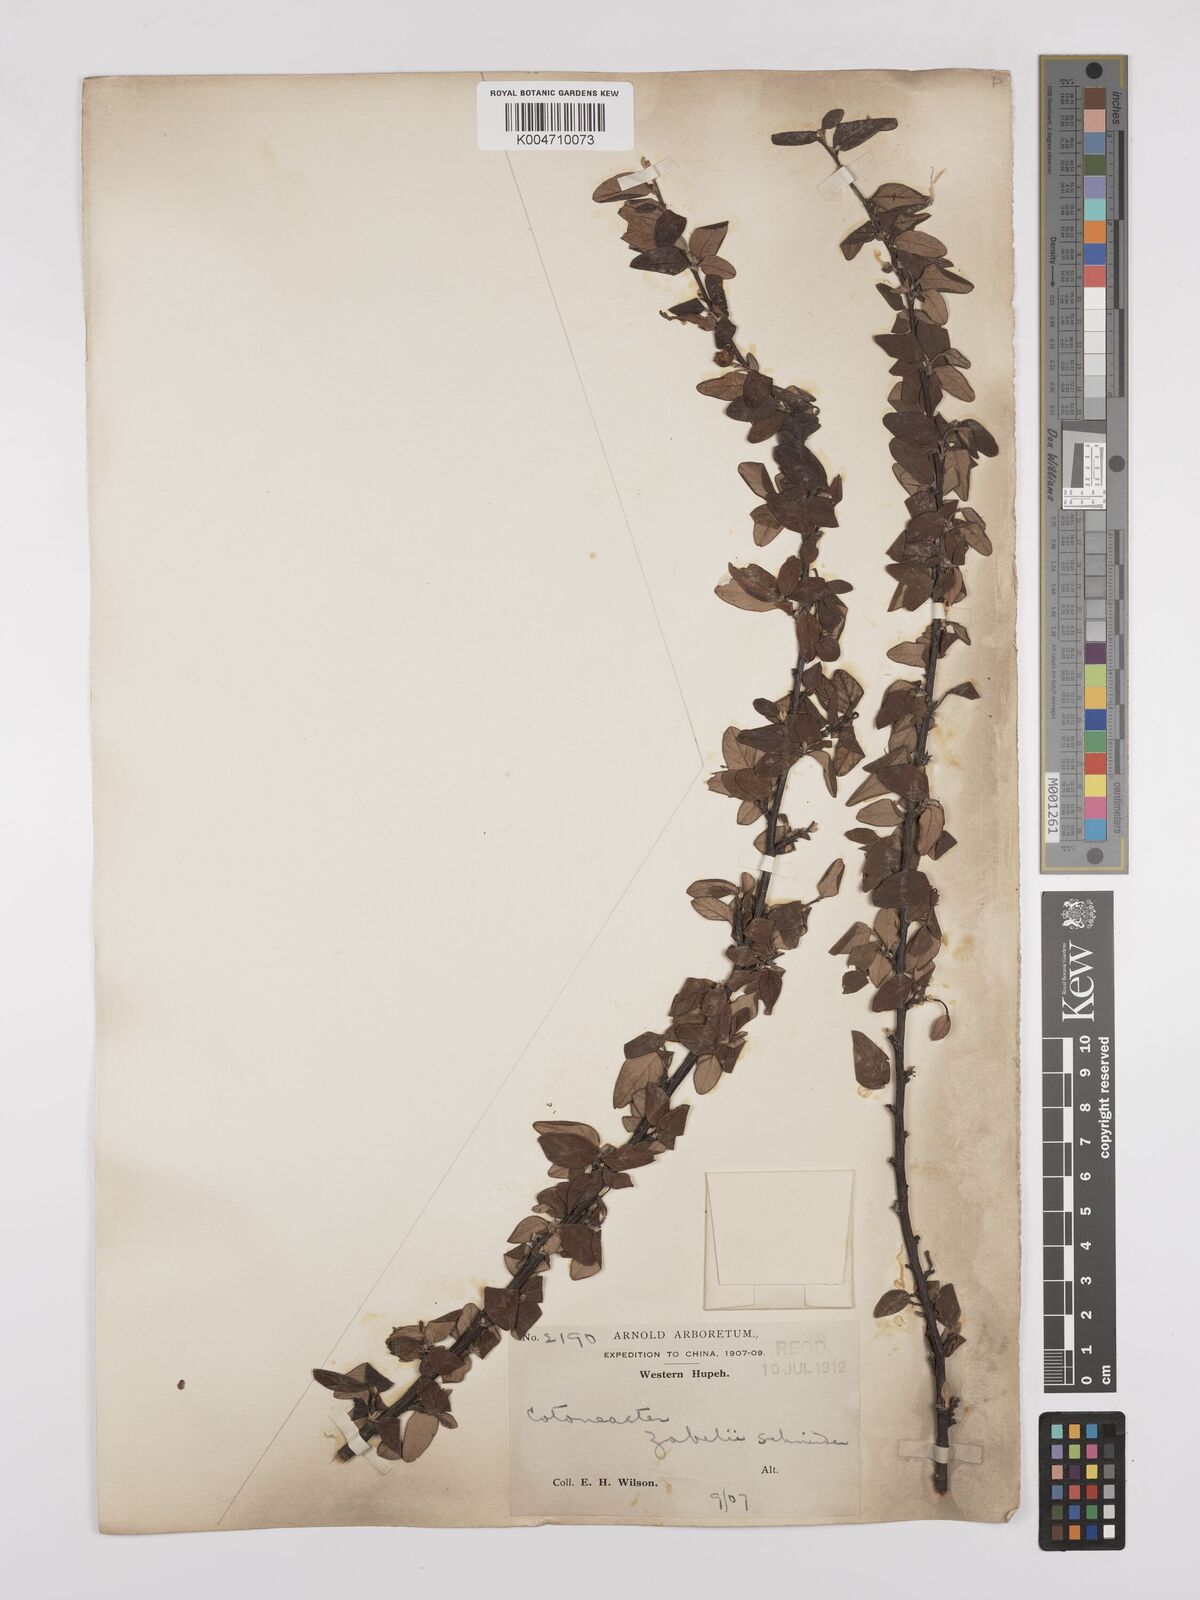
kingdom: Plantae
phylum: Tracheophyta
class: Magnoliopsida
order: Rosales
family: Rosaceae
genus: Cotoneaster
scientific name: Cotoneaster zabelii
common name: Cherryred cotoneaster
